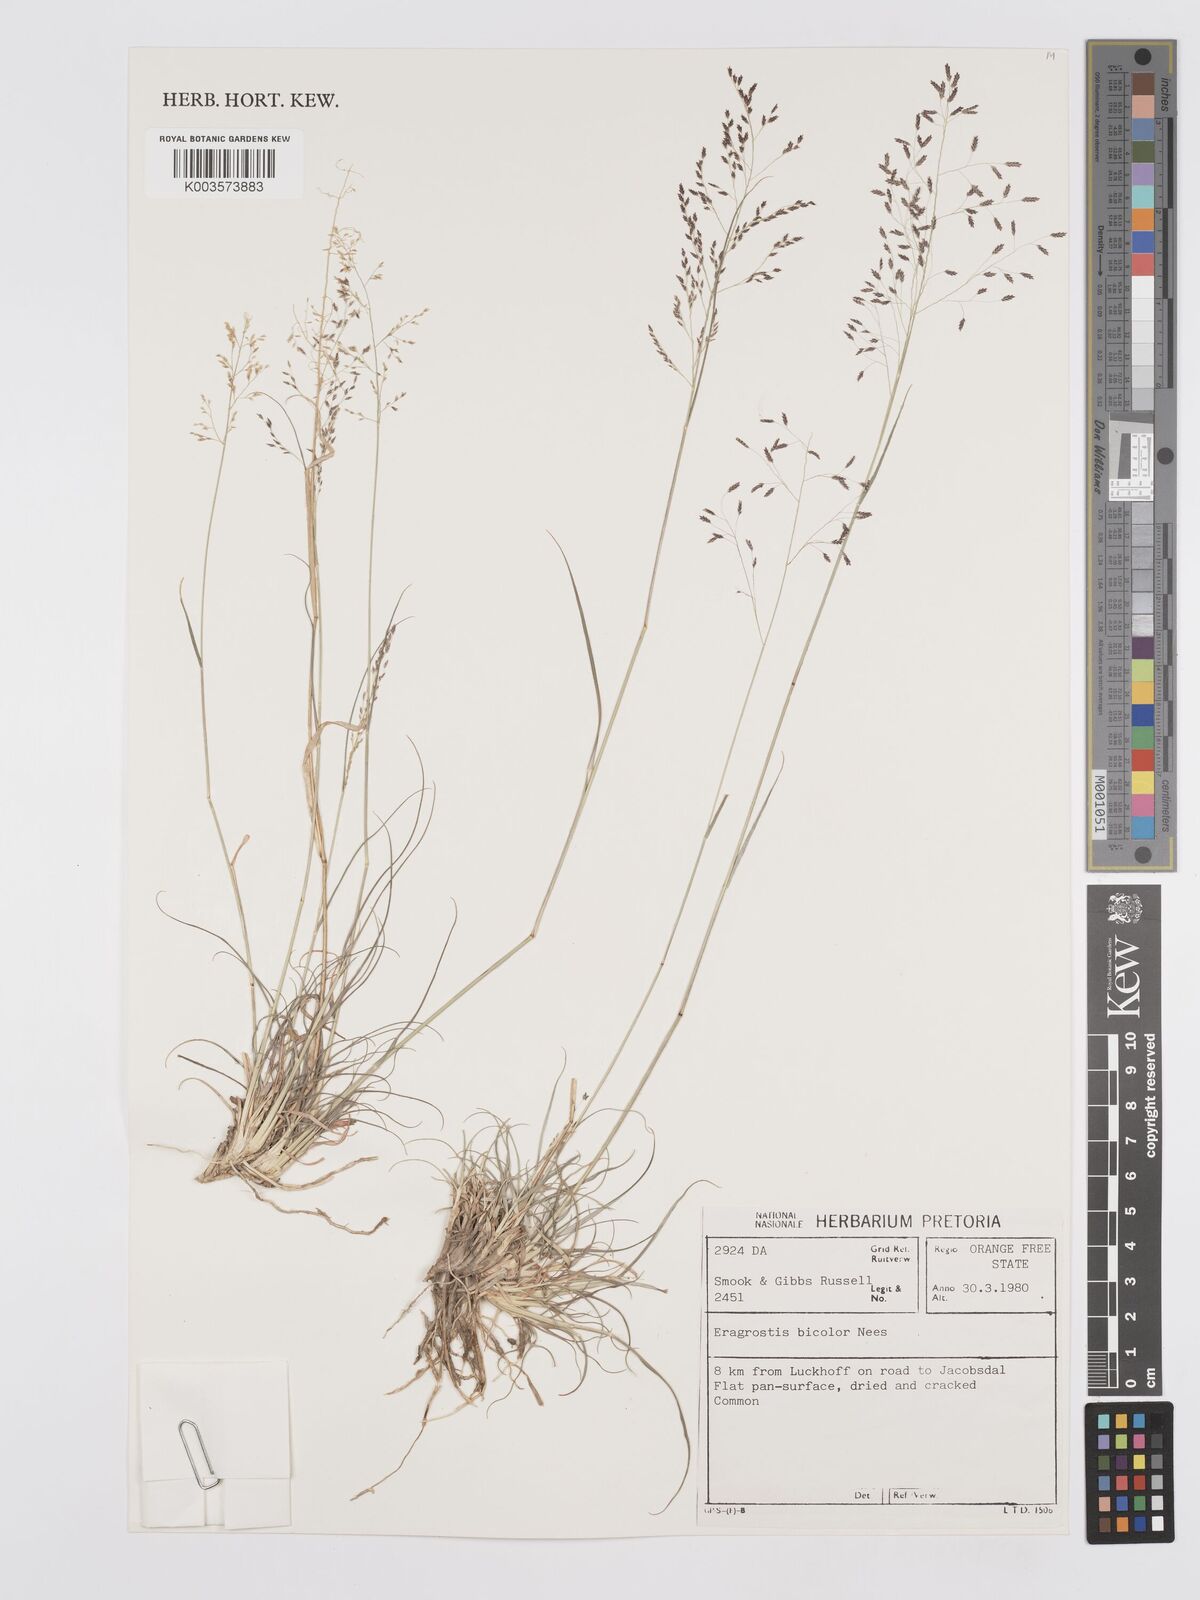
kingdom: Plantae
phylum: Tracheophyta
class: Liliopsida
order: Poales
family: Poaceae
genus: Eragrostis
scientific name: Eragrostis
